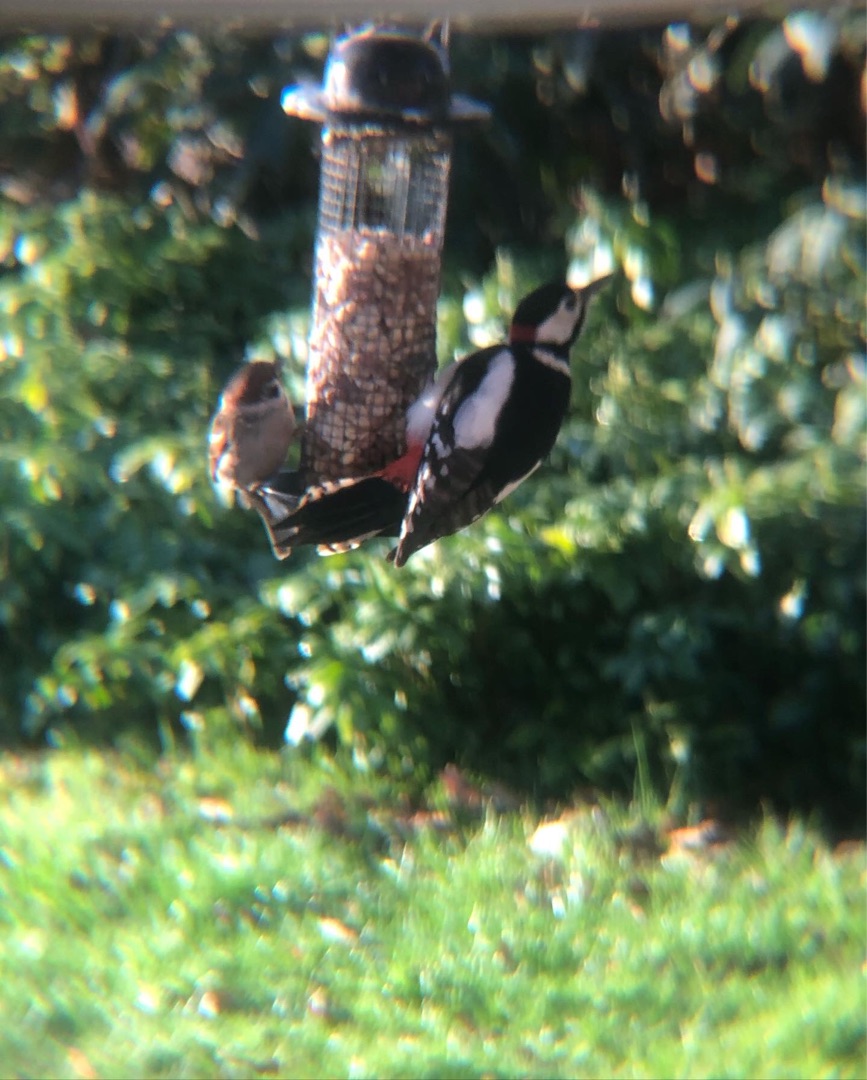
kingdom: Animalia
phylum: Chordata
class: Aves
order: Piciformes
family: Picidae
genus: Dendrocopos
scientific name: Dendrocopos major
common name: Stor flagspætte
